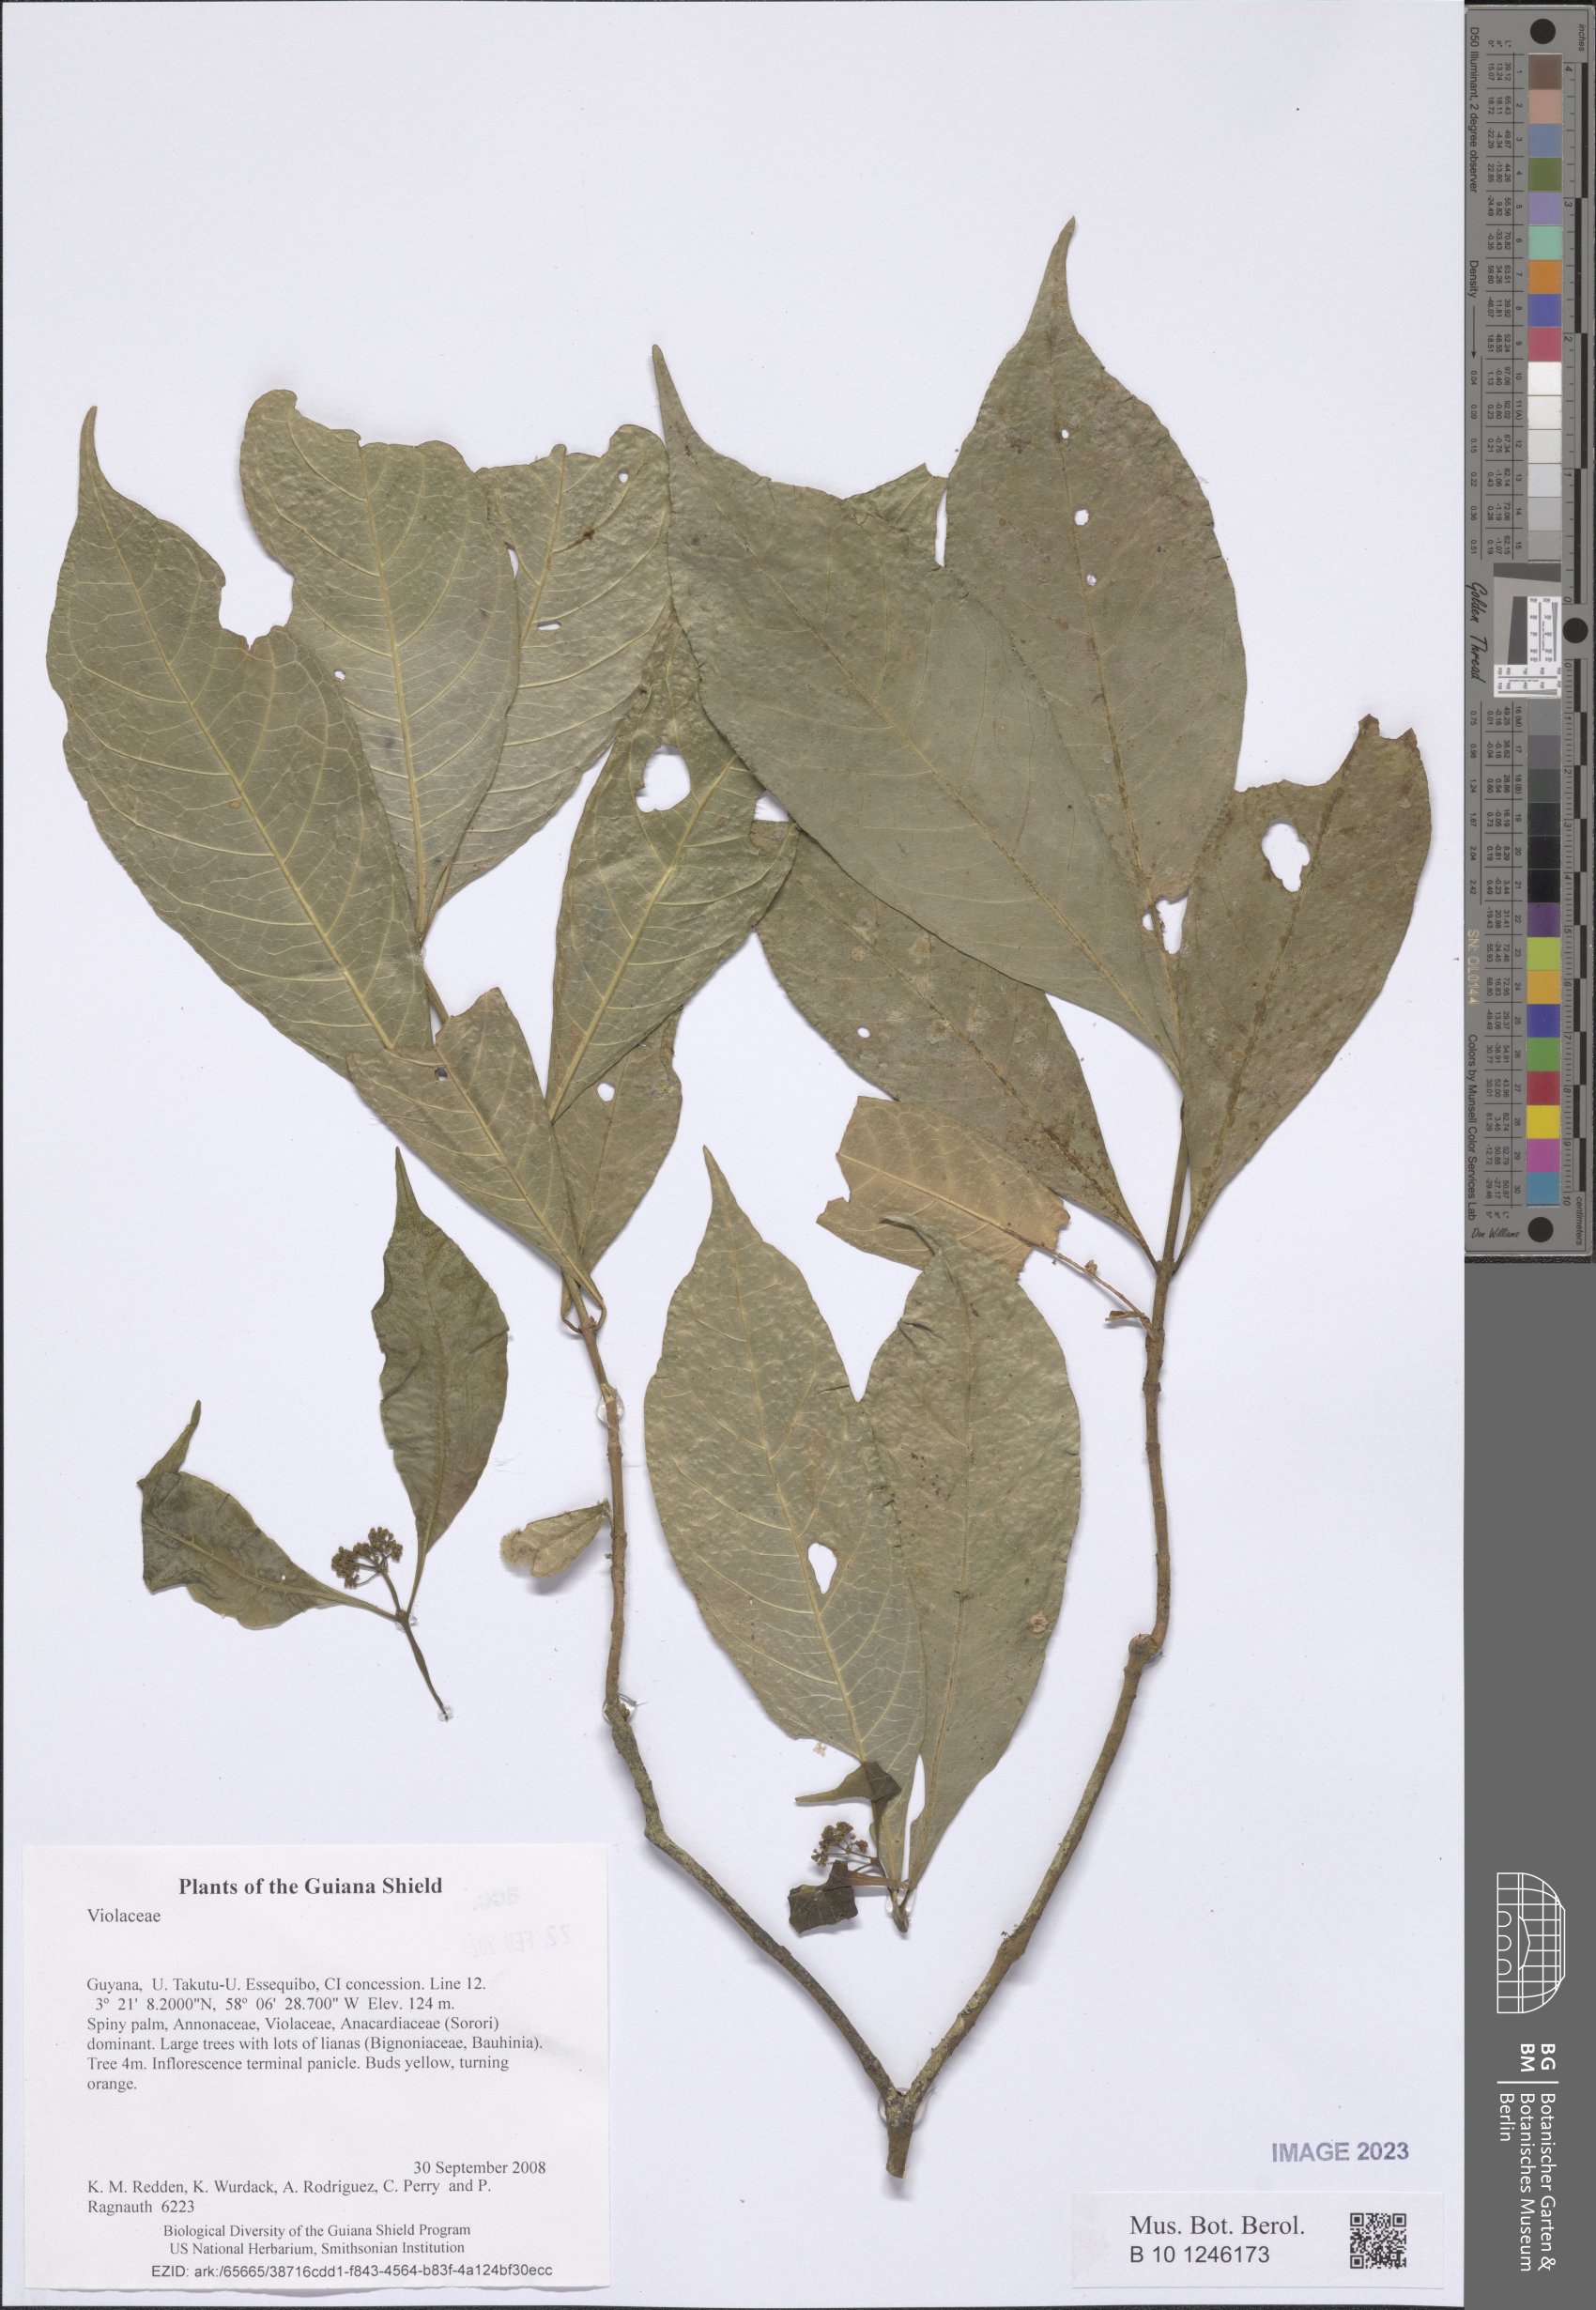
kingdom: Plantae
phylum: Tracheophyta
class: Magnoliopsida
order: Malpighiales
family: Violaceae
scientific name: Violaceae
